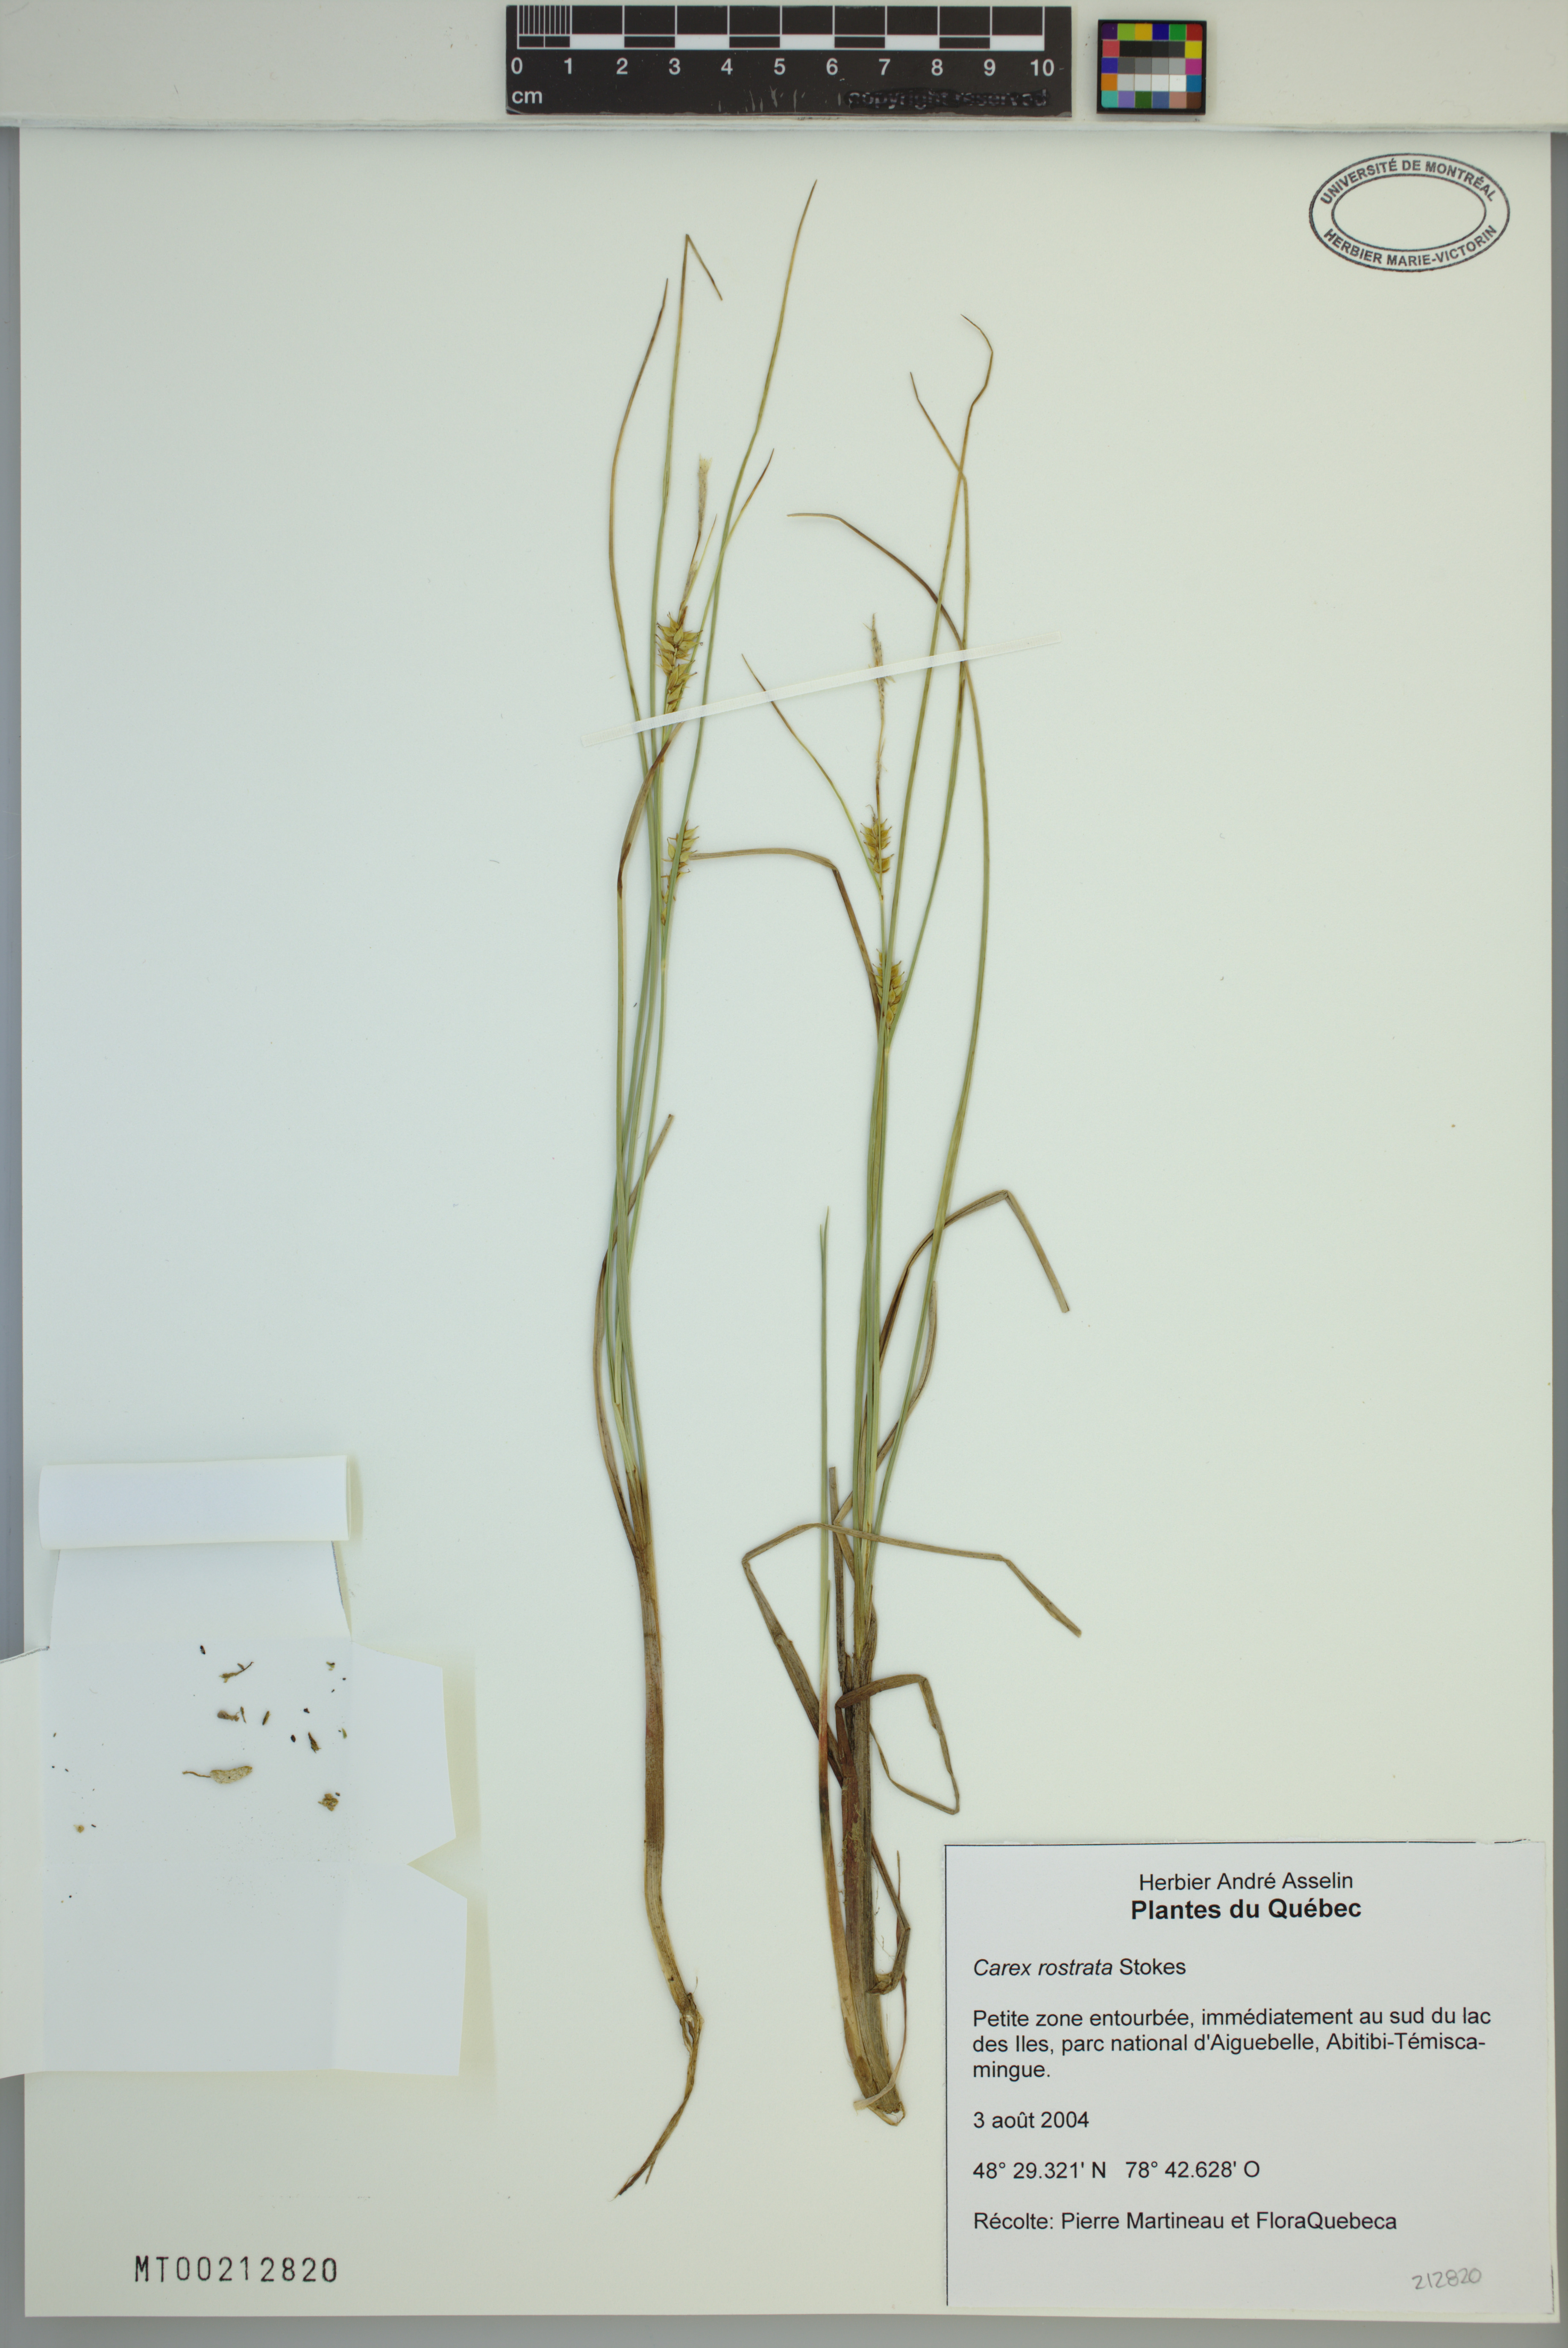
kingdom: Plantae
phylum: Tracheophyta
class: Liliopsida
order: Poales
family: Cyperaceae
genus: Carex
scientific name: Carex rostrata
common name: Bottle sedge
